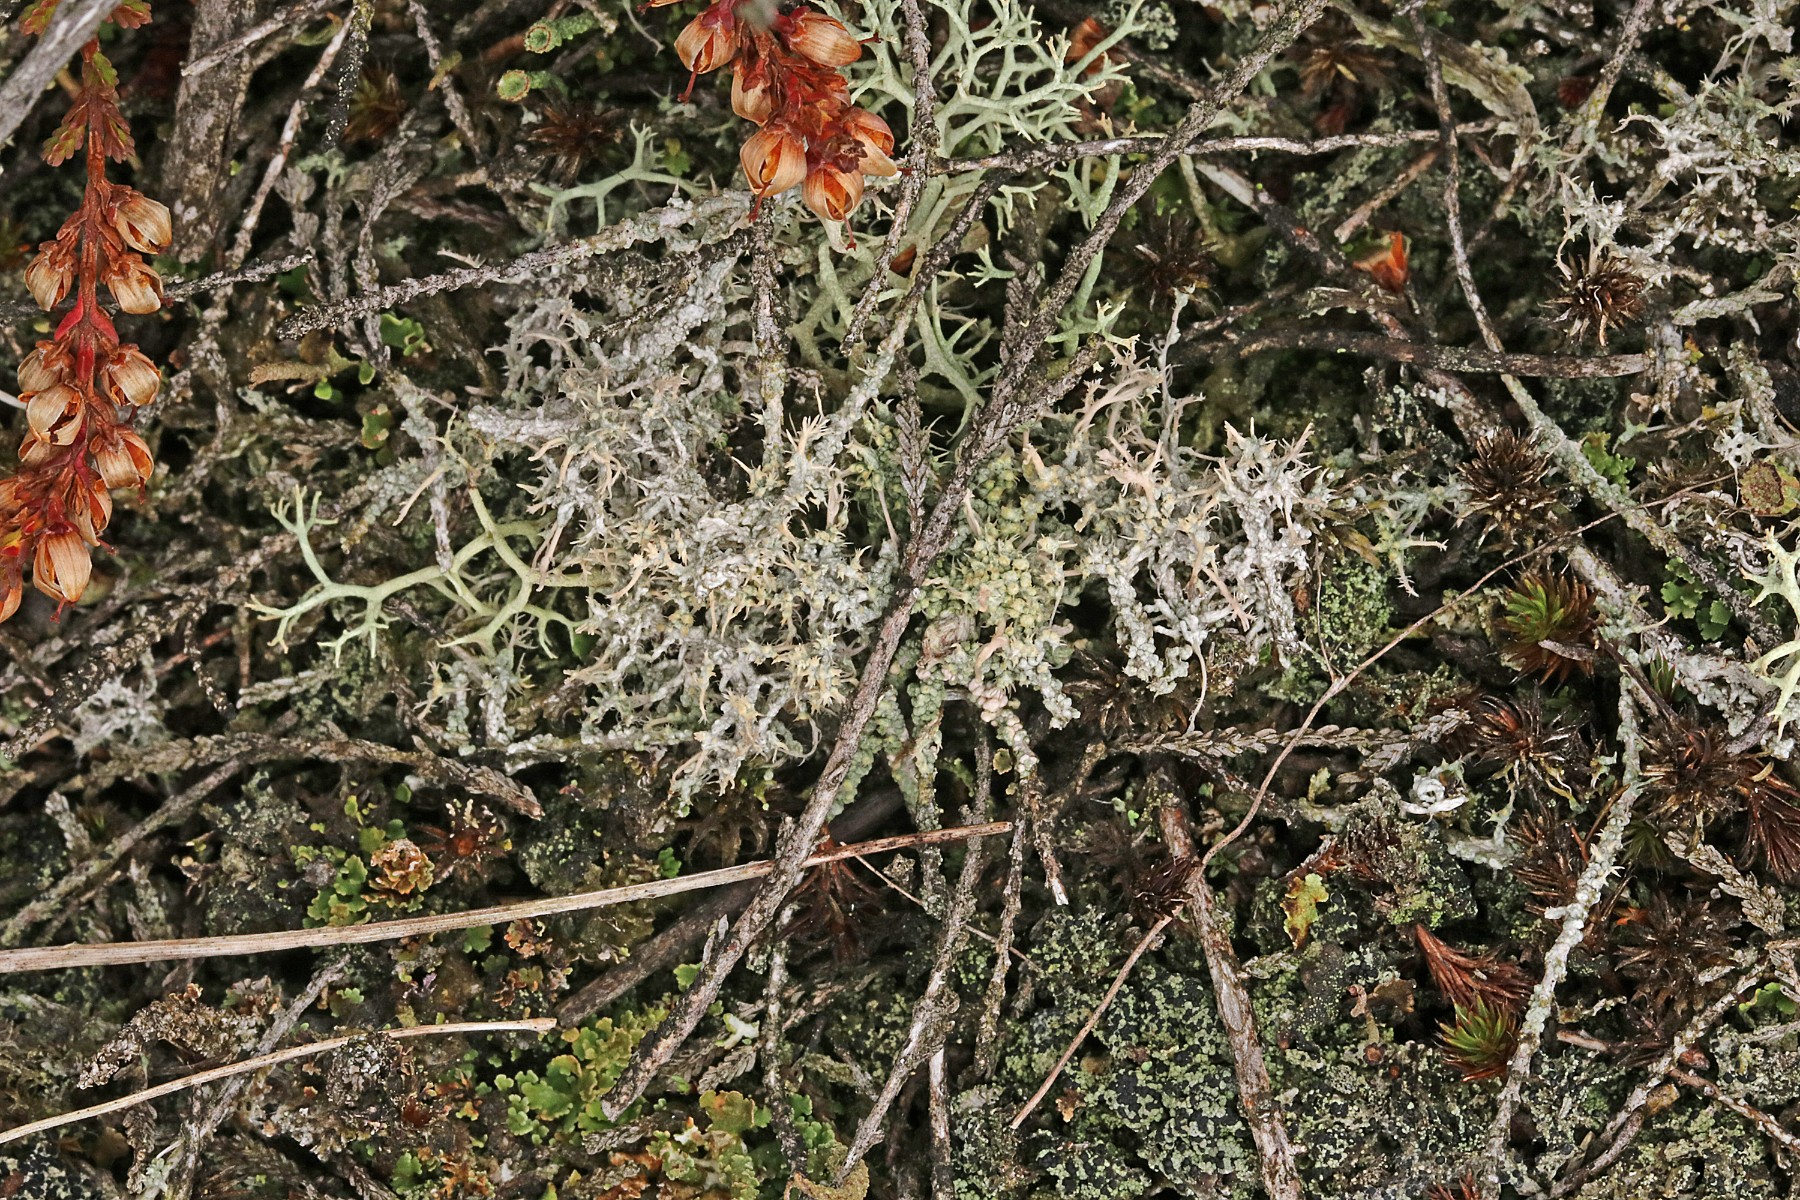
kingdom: Fungi
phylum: Ascomycota
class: Lecanoromycetes
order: Pertusariales
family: Ochrolechiaceae
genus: Ochrolechia
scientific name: Ochrolechia frigida
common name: fjeld-blegskivelav
